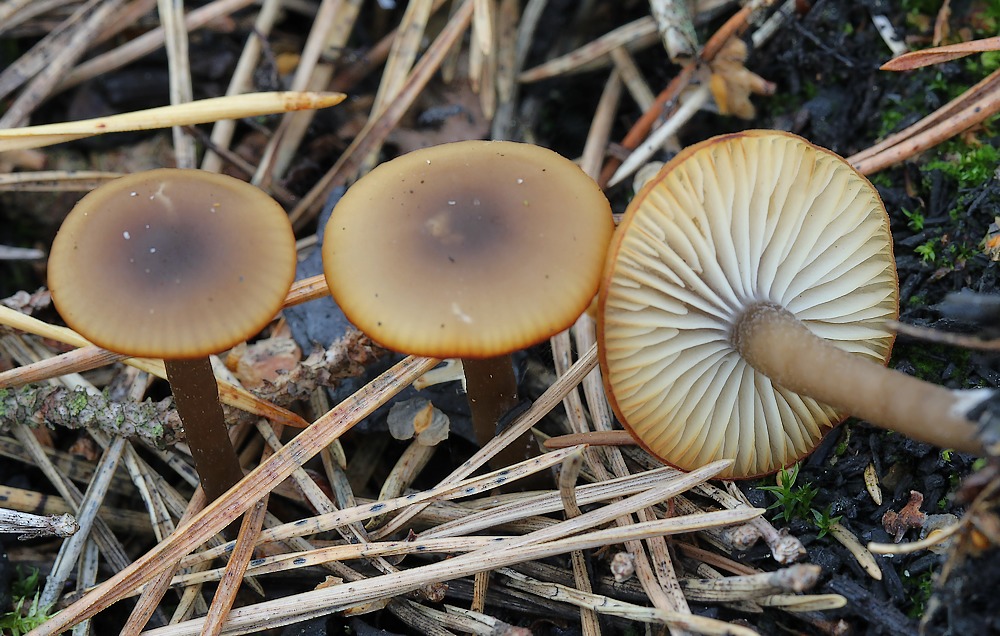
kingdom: Fungi
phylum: Basidiomycota
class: Agaricomycetes
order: Agaricales
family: Lyophyllaceae
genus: Tephrocybe
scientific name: Tephrocybe anthracophila
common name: svedje-gråblad
